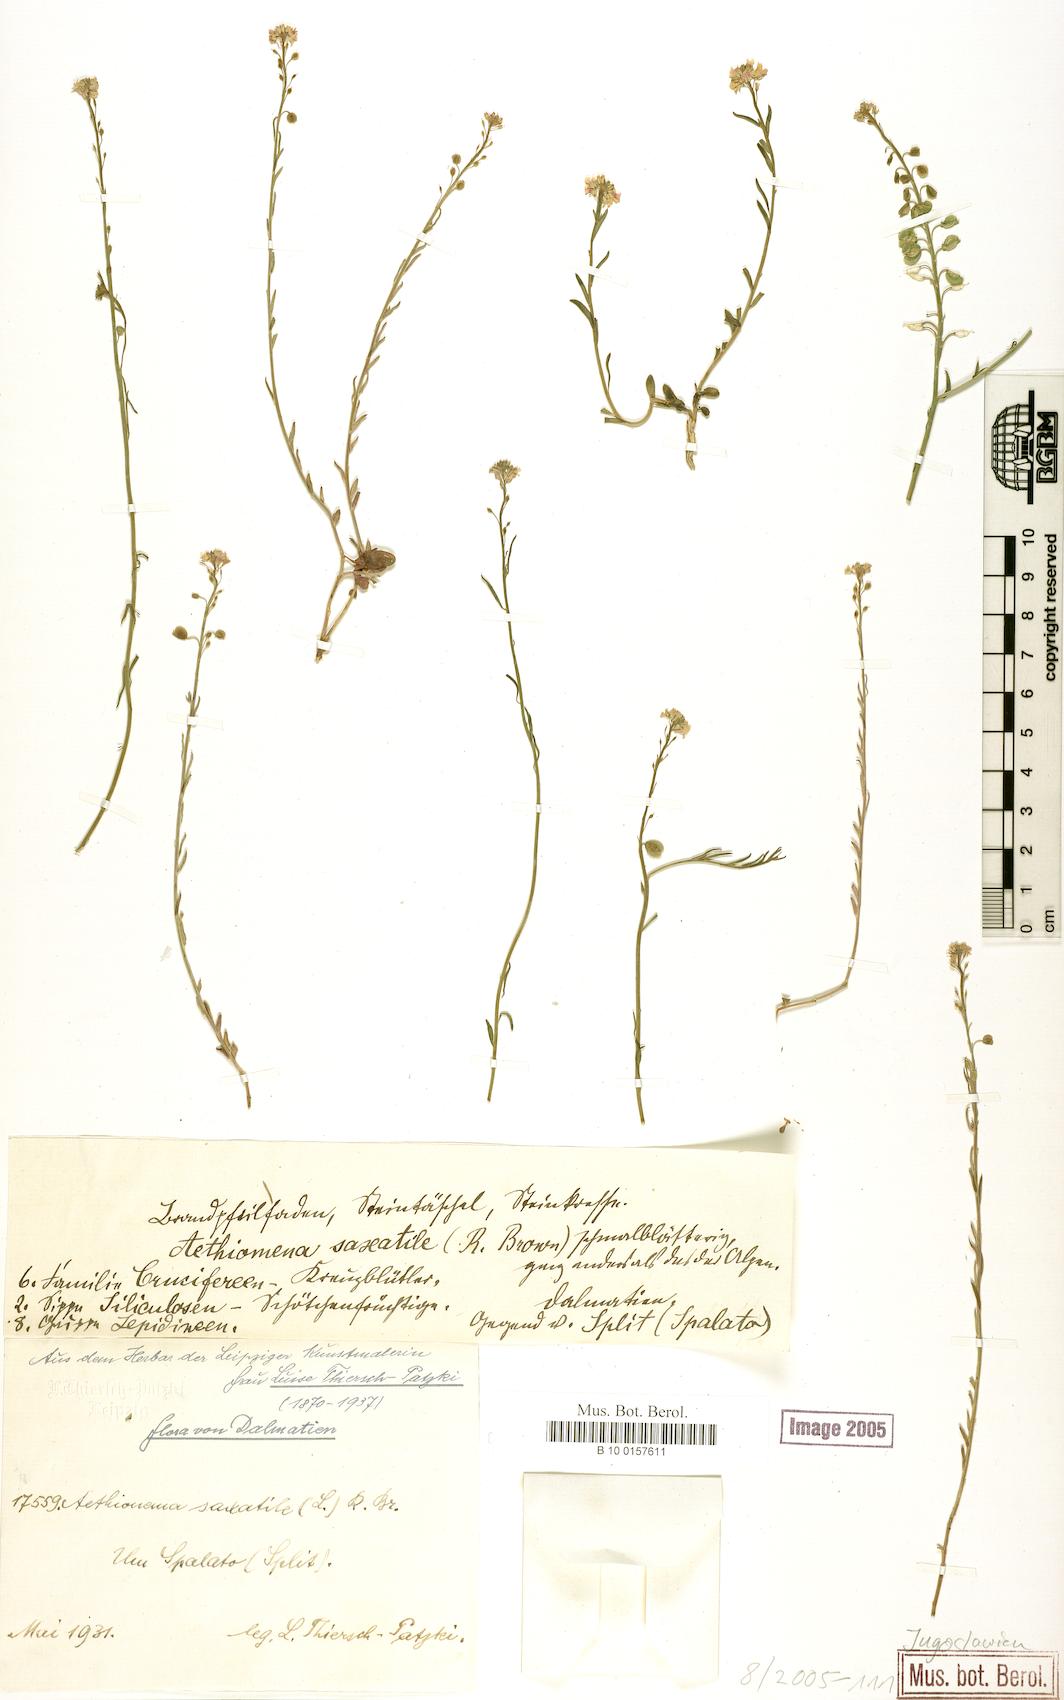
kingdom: Plantae
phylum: Tracheophyta
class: Magnoliopsida
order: Brassicales
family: Brassicaceae
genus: Aethionema
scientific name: Aethionema saxatile
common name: Burnt candytuft
